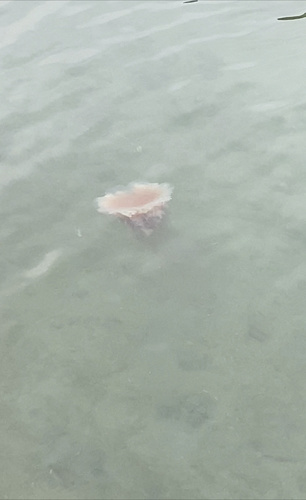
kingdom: Animalia
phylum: Cnidaria
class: Scyphozoa
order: Semaeostomeae
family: Cyaneidae
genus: Cyanea
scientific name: Cyanea nozakii
